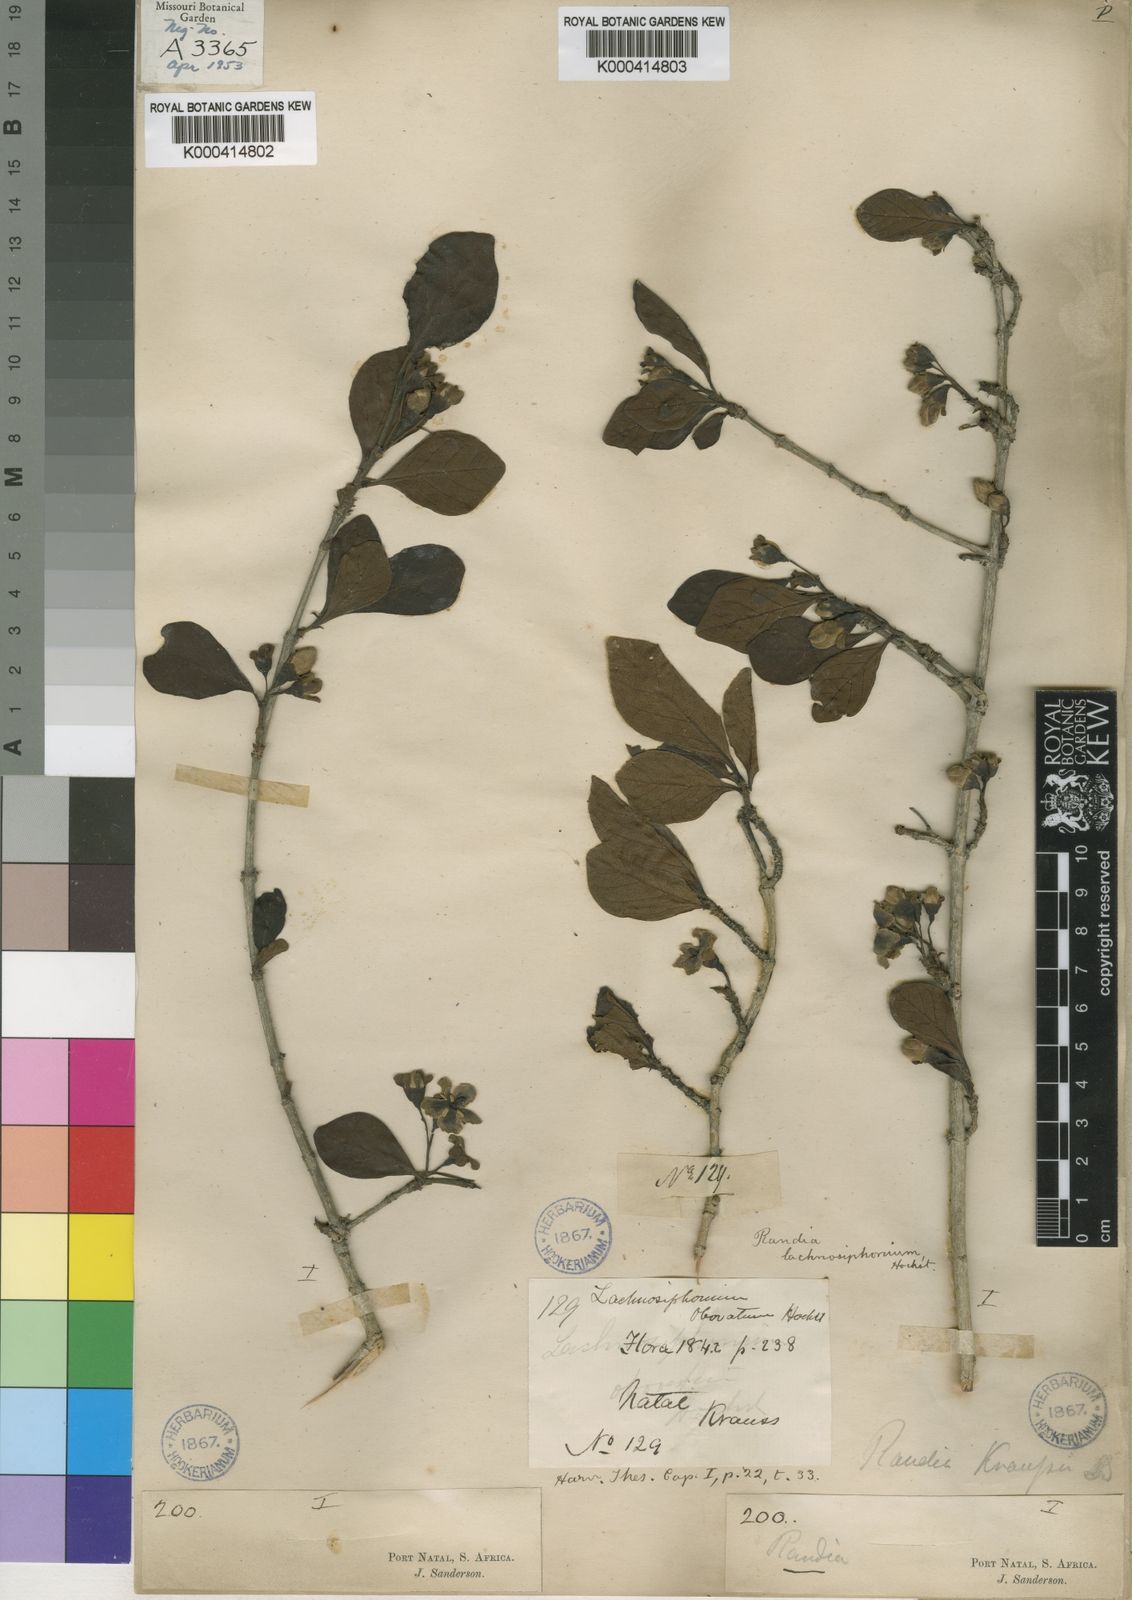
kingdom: Plantae
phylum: Tracheophyta
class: Magnoliopsida
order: Gentianales
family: Rubiaceae
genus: Catunaregam
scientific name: Catunaregam
